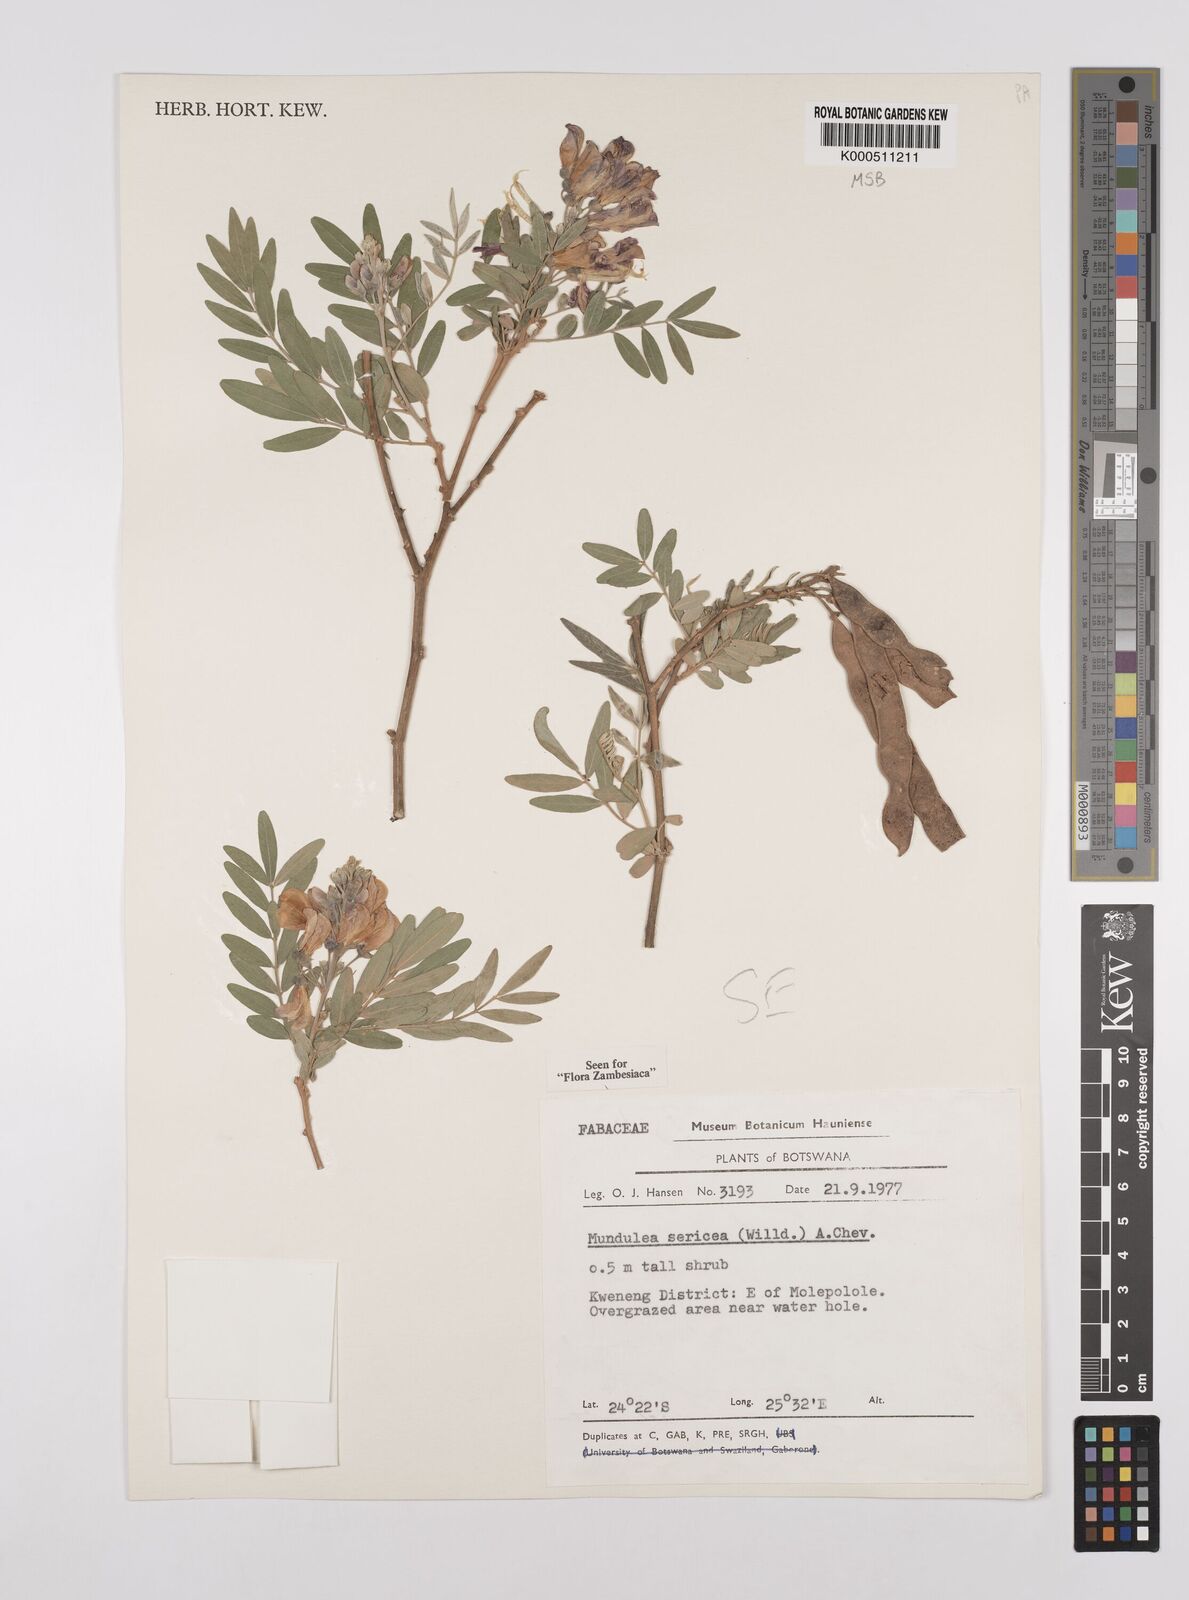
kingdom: Plantae
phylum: Tracheophyta
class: Magnoliopsida
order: Fabales
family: Fabaceae
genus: Mundulea
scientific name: Mundulea sericea
